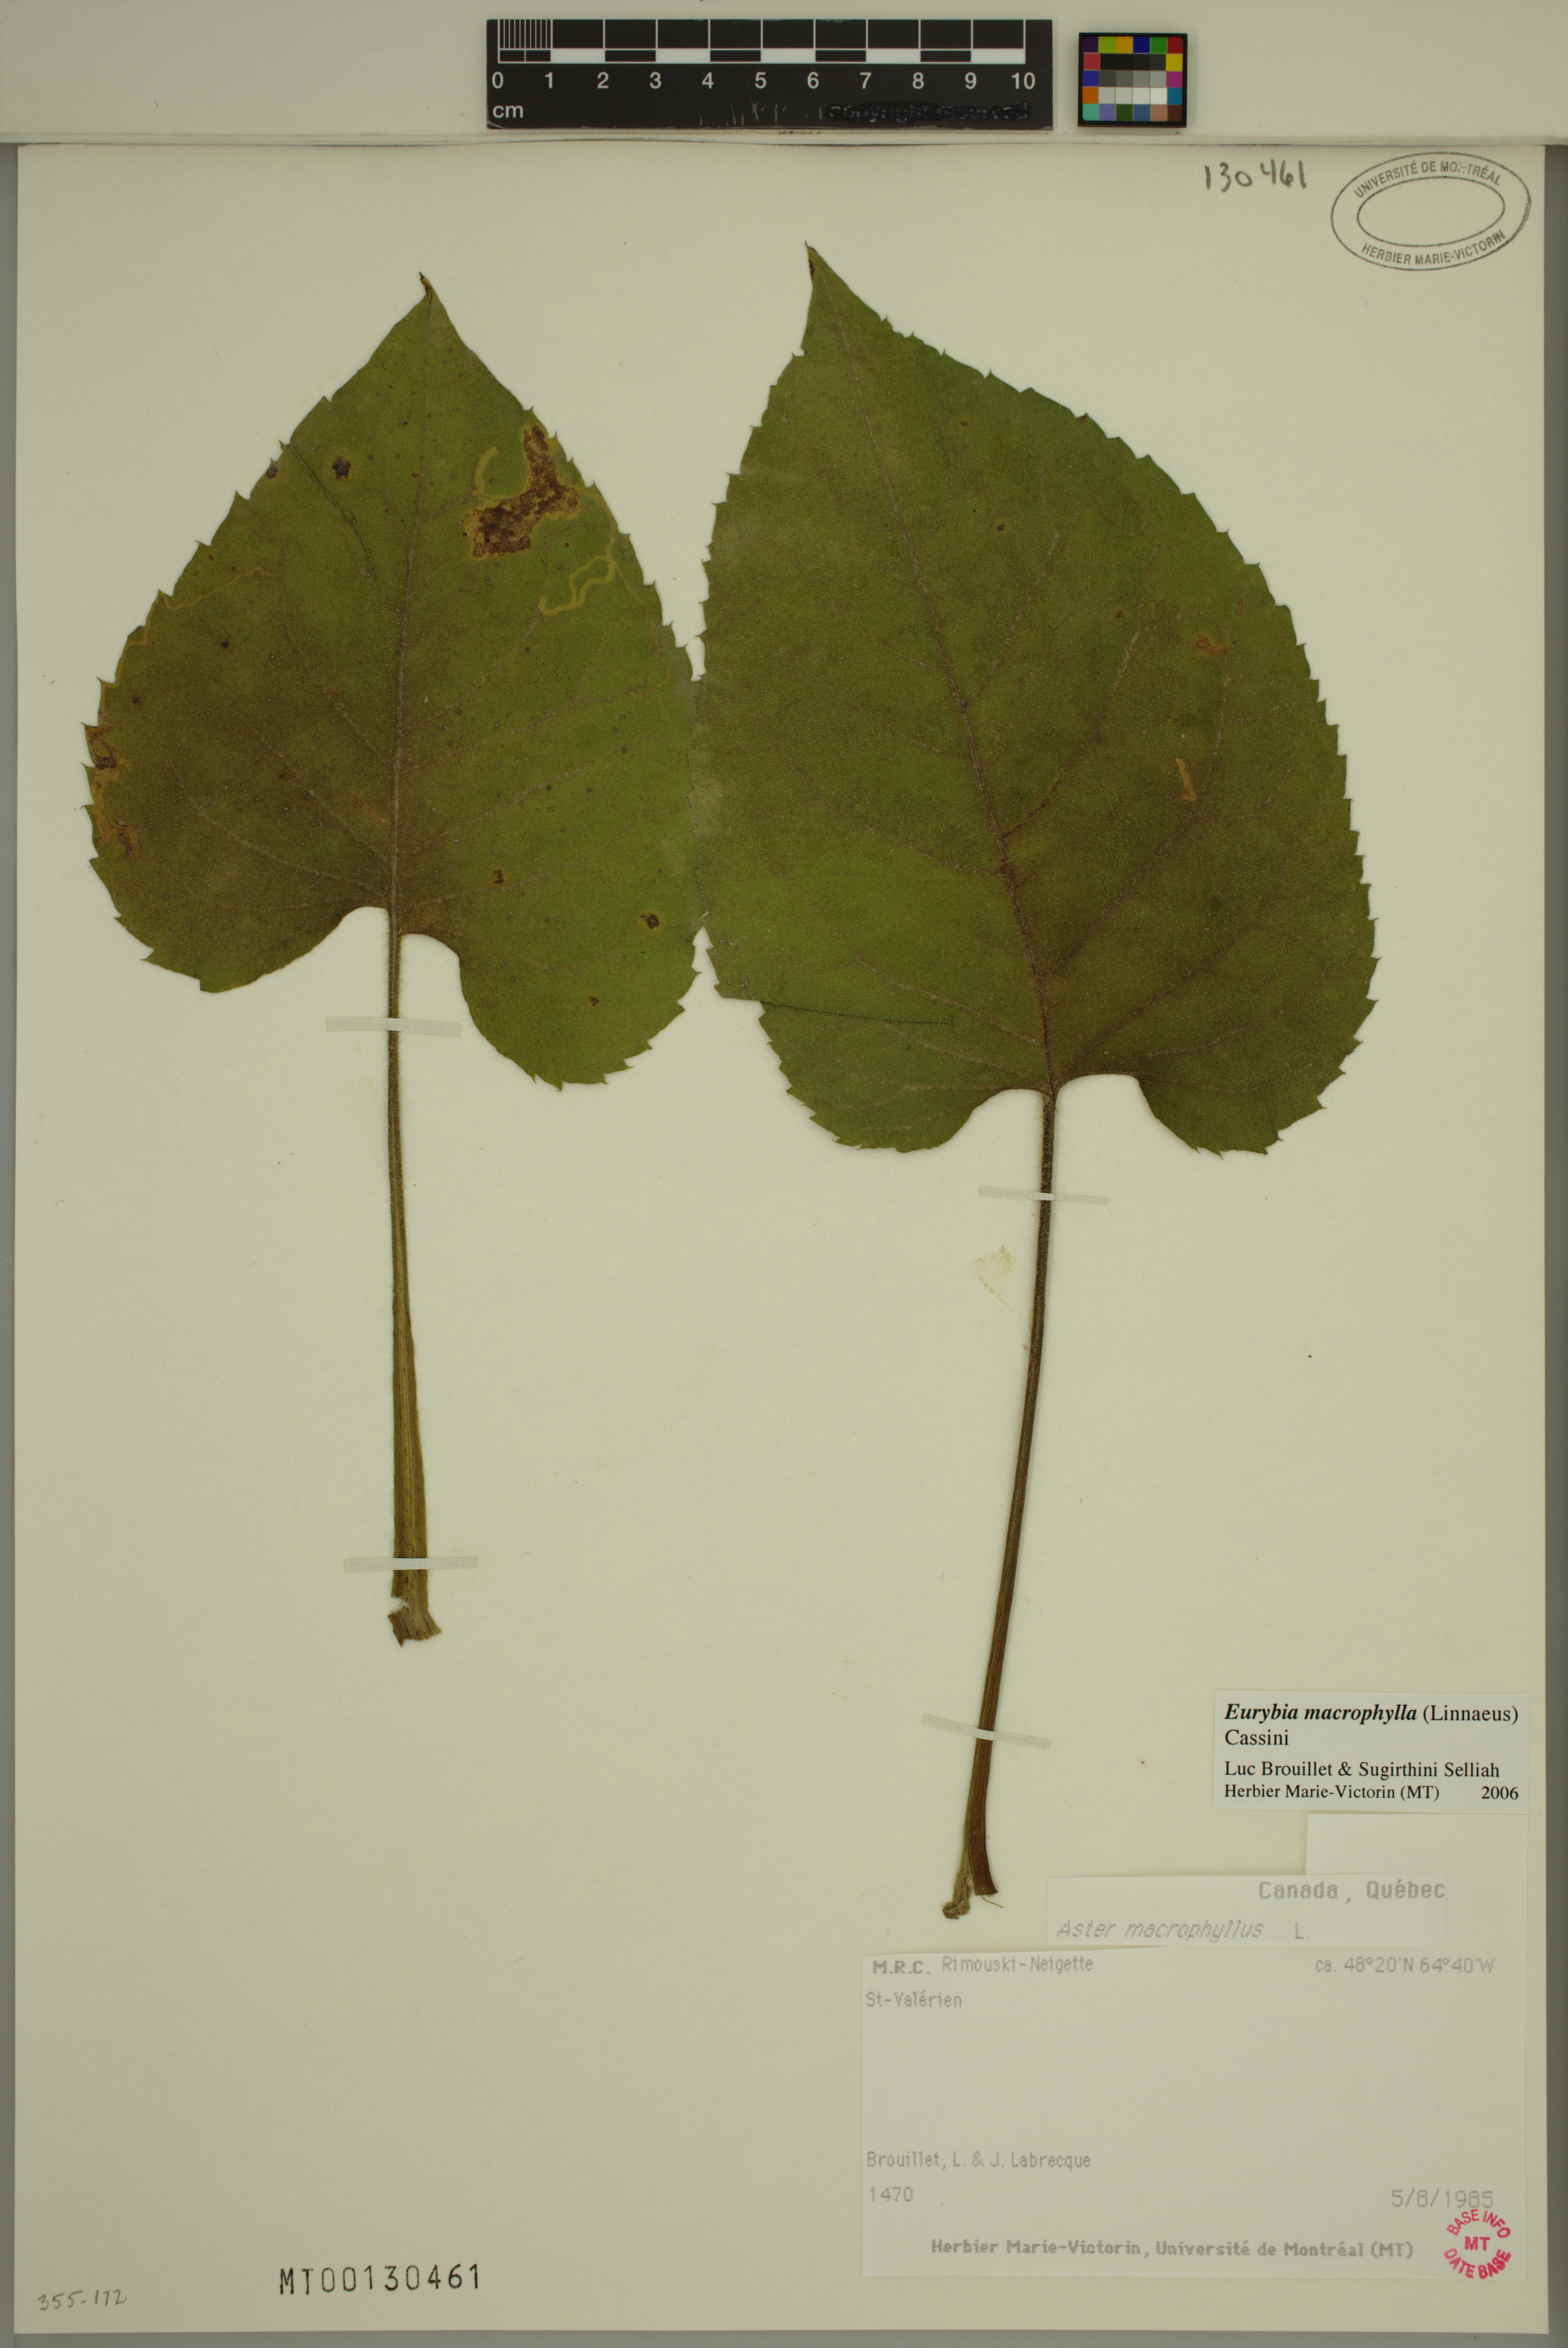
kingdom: Plantae
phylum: Tracheophyta
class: Magnoliopsida
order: Asterales
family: Asteraceae
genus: Eurybia
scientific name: Eurybia macrophylla
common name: Big-leaved aster
